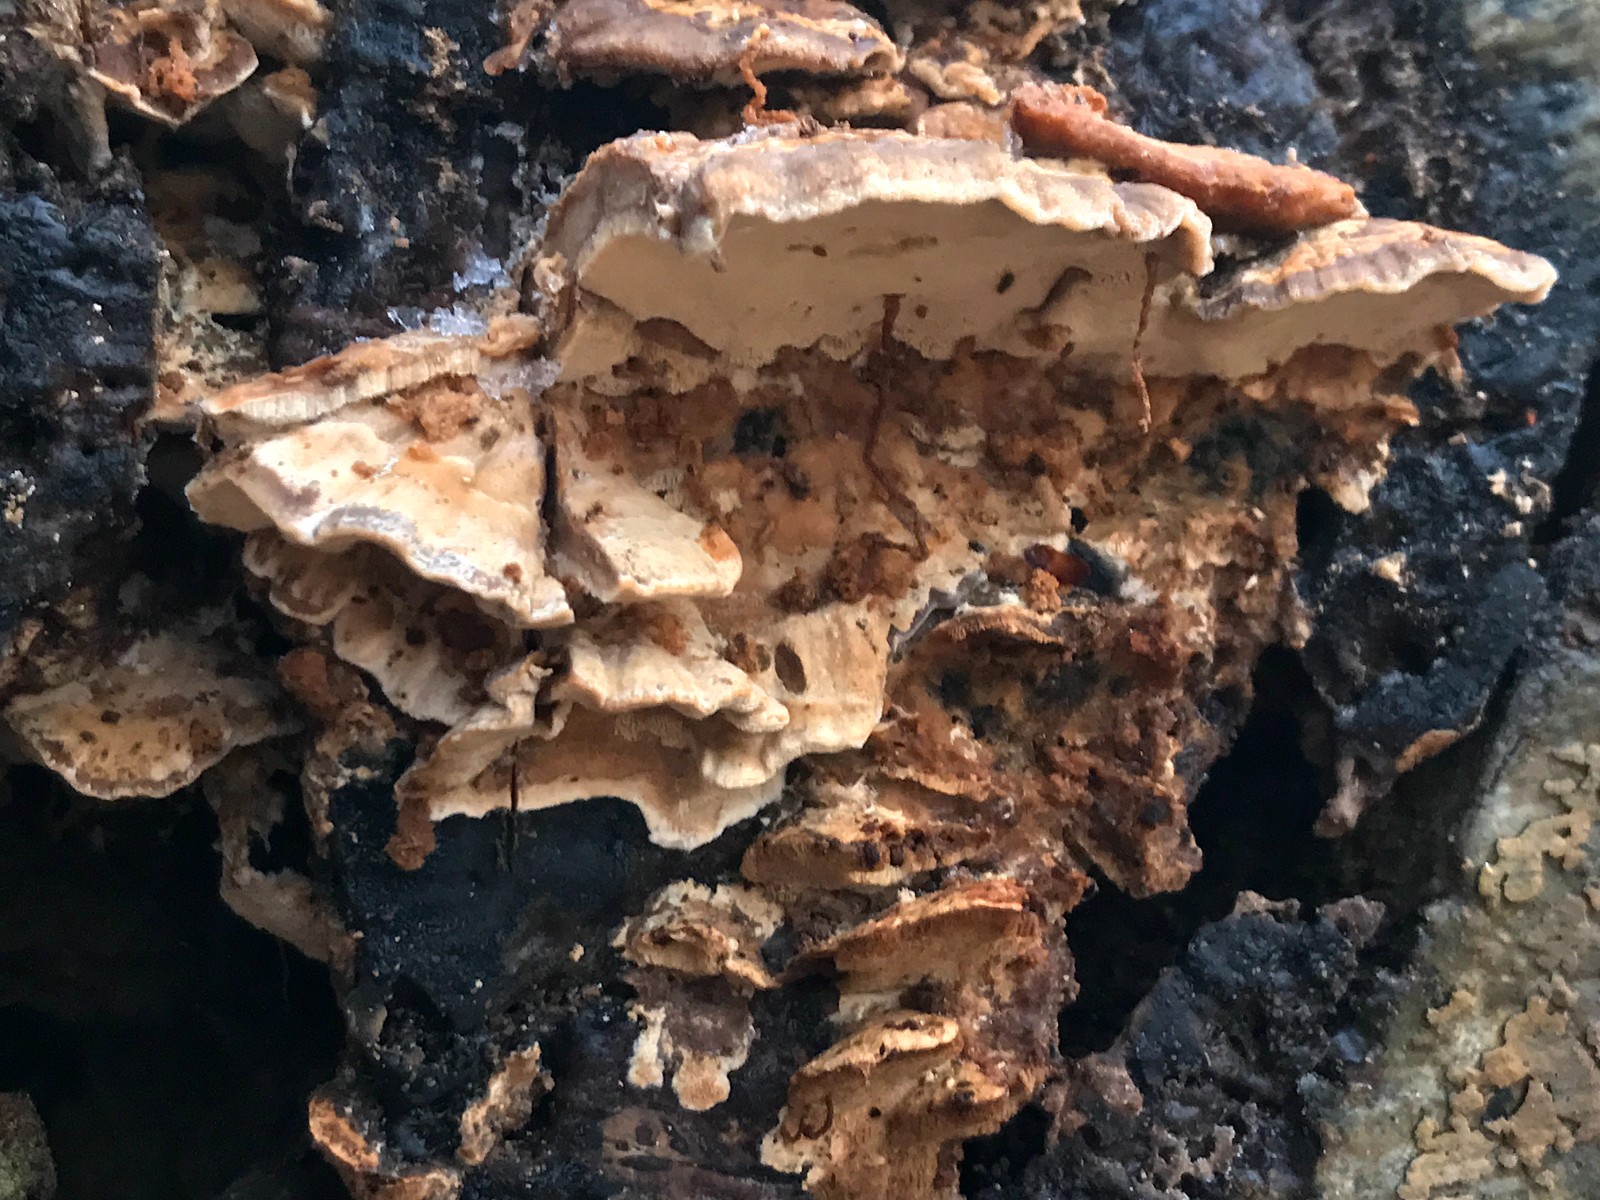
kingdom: Fungi
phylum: Basidiomycota
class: Agaricomycetes
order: Polyporales
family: Phanerochaetaceae
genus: Bjerkandera
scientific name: Bjerkandera fumosa
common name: grågul sodporesvamp
